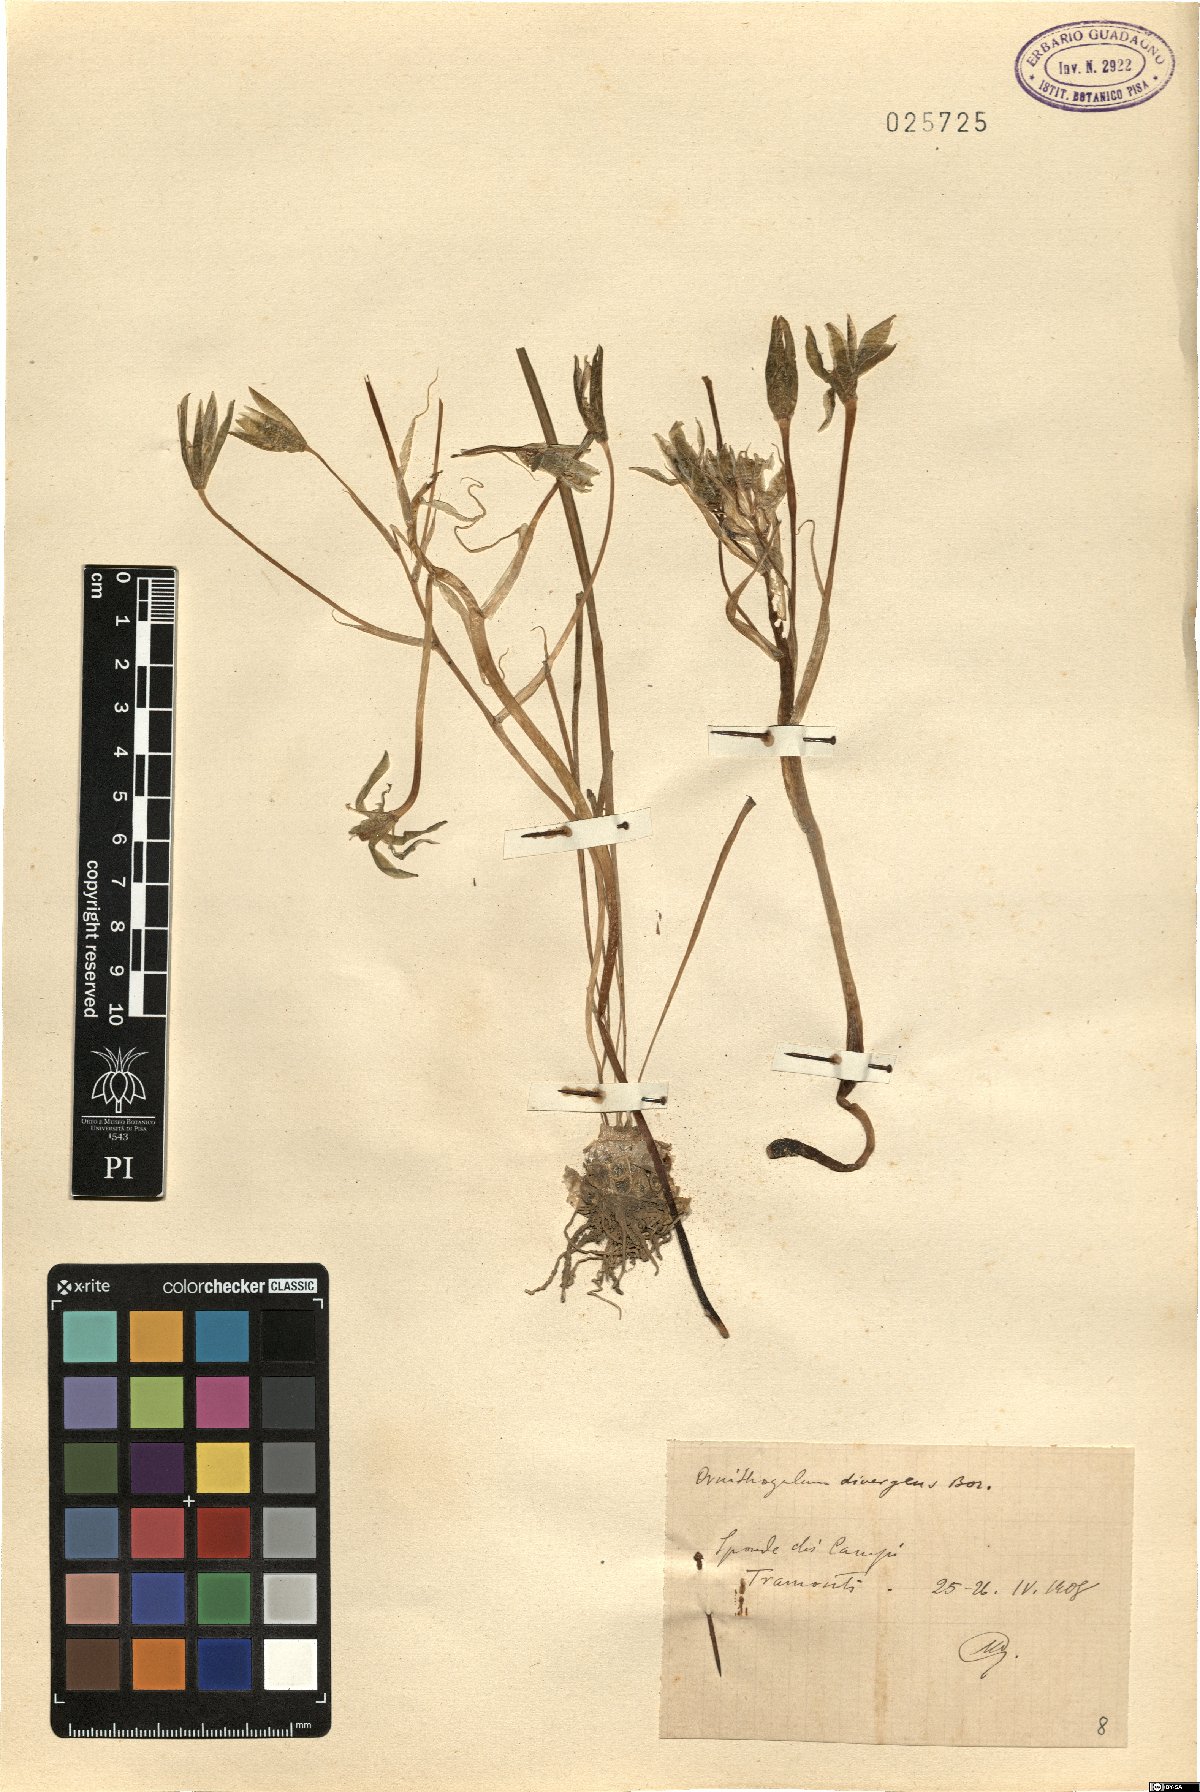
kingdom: Plantae
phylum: Tracheophyta
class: Liliopsida
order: Asparagales
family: Asparagaceae
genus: Ornithogalum
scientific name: Ornithogalum divergens
